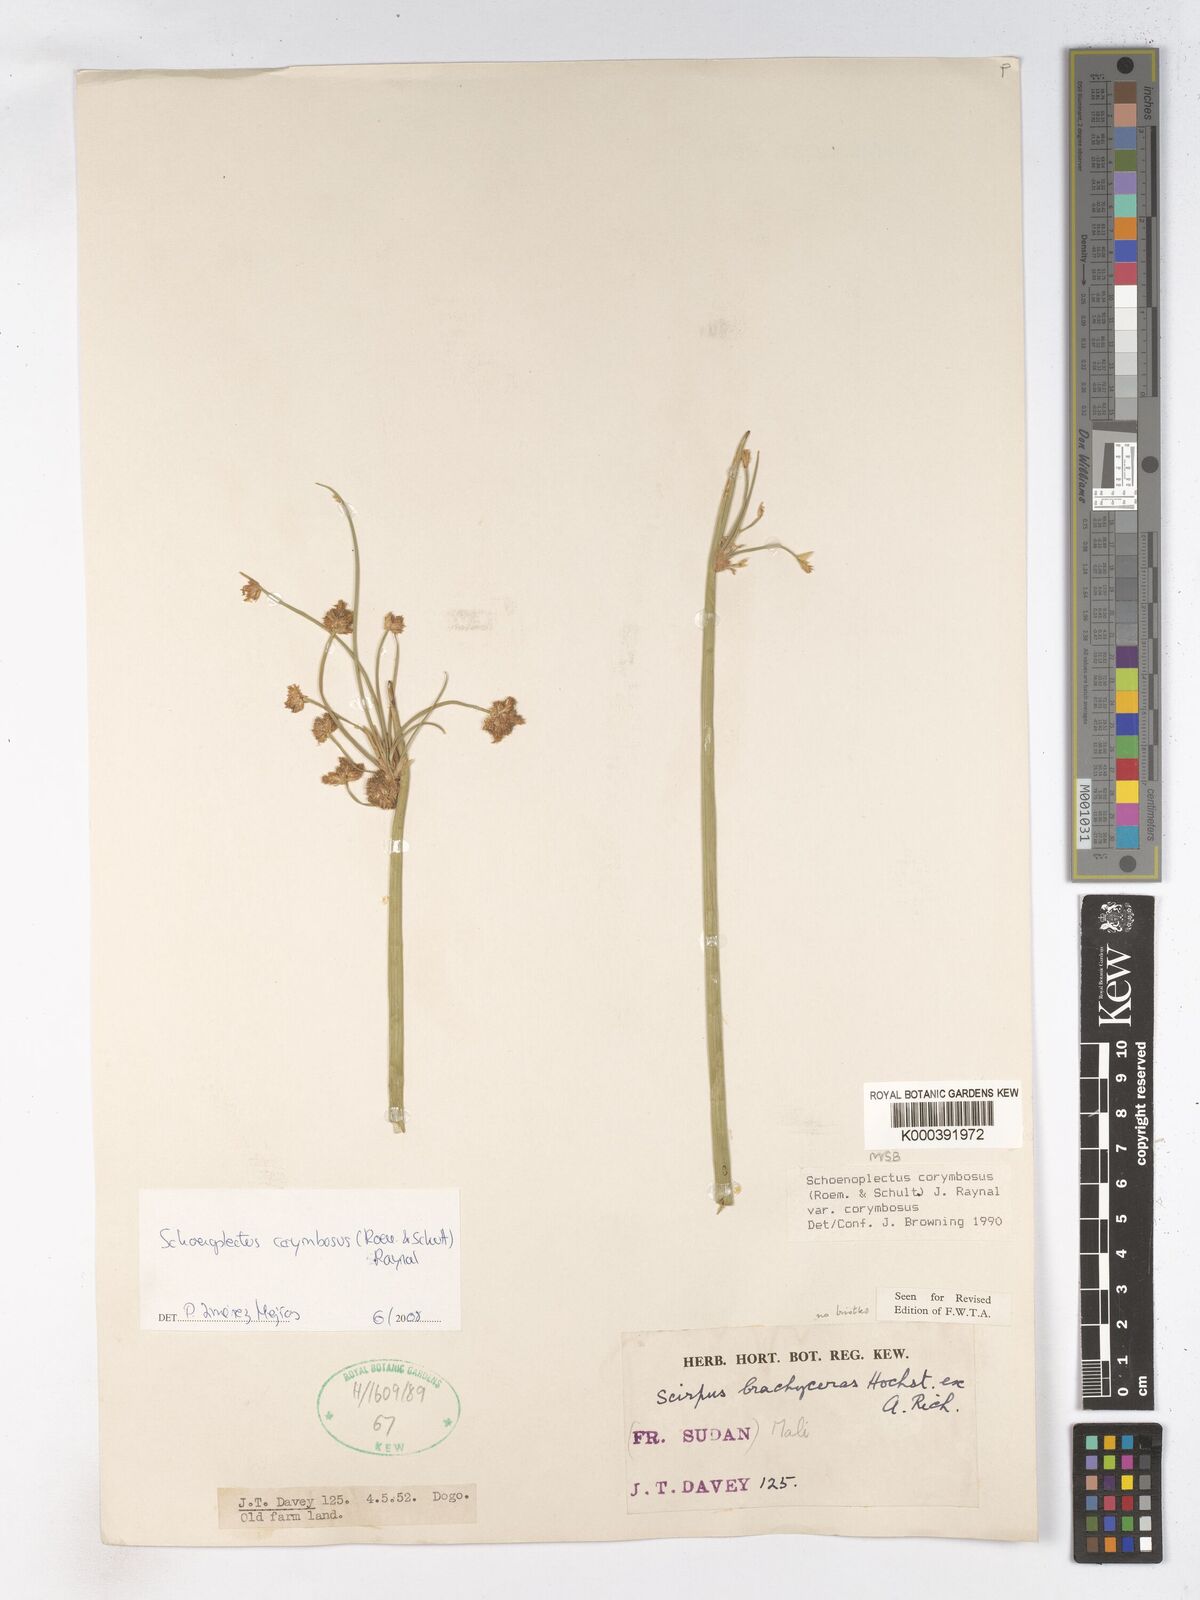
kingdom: Plantae
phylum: Tracheophyta
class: Liliopsida
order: Poales
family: Cyperaceae
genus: Schoenoplectiella
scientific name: Schoenoplectiella brachyceras
